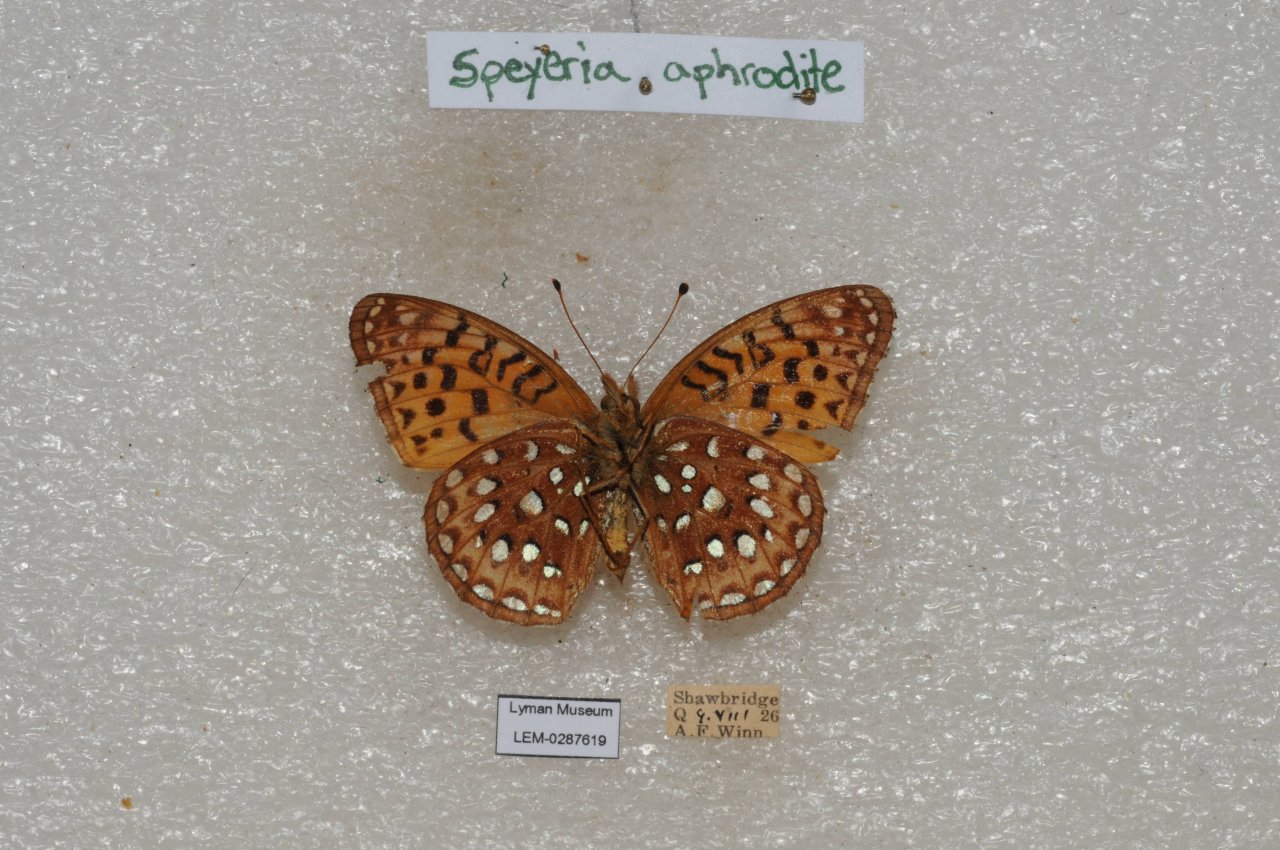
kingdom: Animalia
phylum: Arthropoda
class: Insecta
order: Lepidoptera
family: Nymphalidae
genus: Speyeria
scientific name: Speyeria aphrodite
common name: Aphrodite Fritillary
